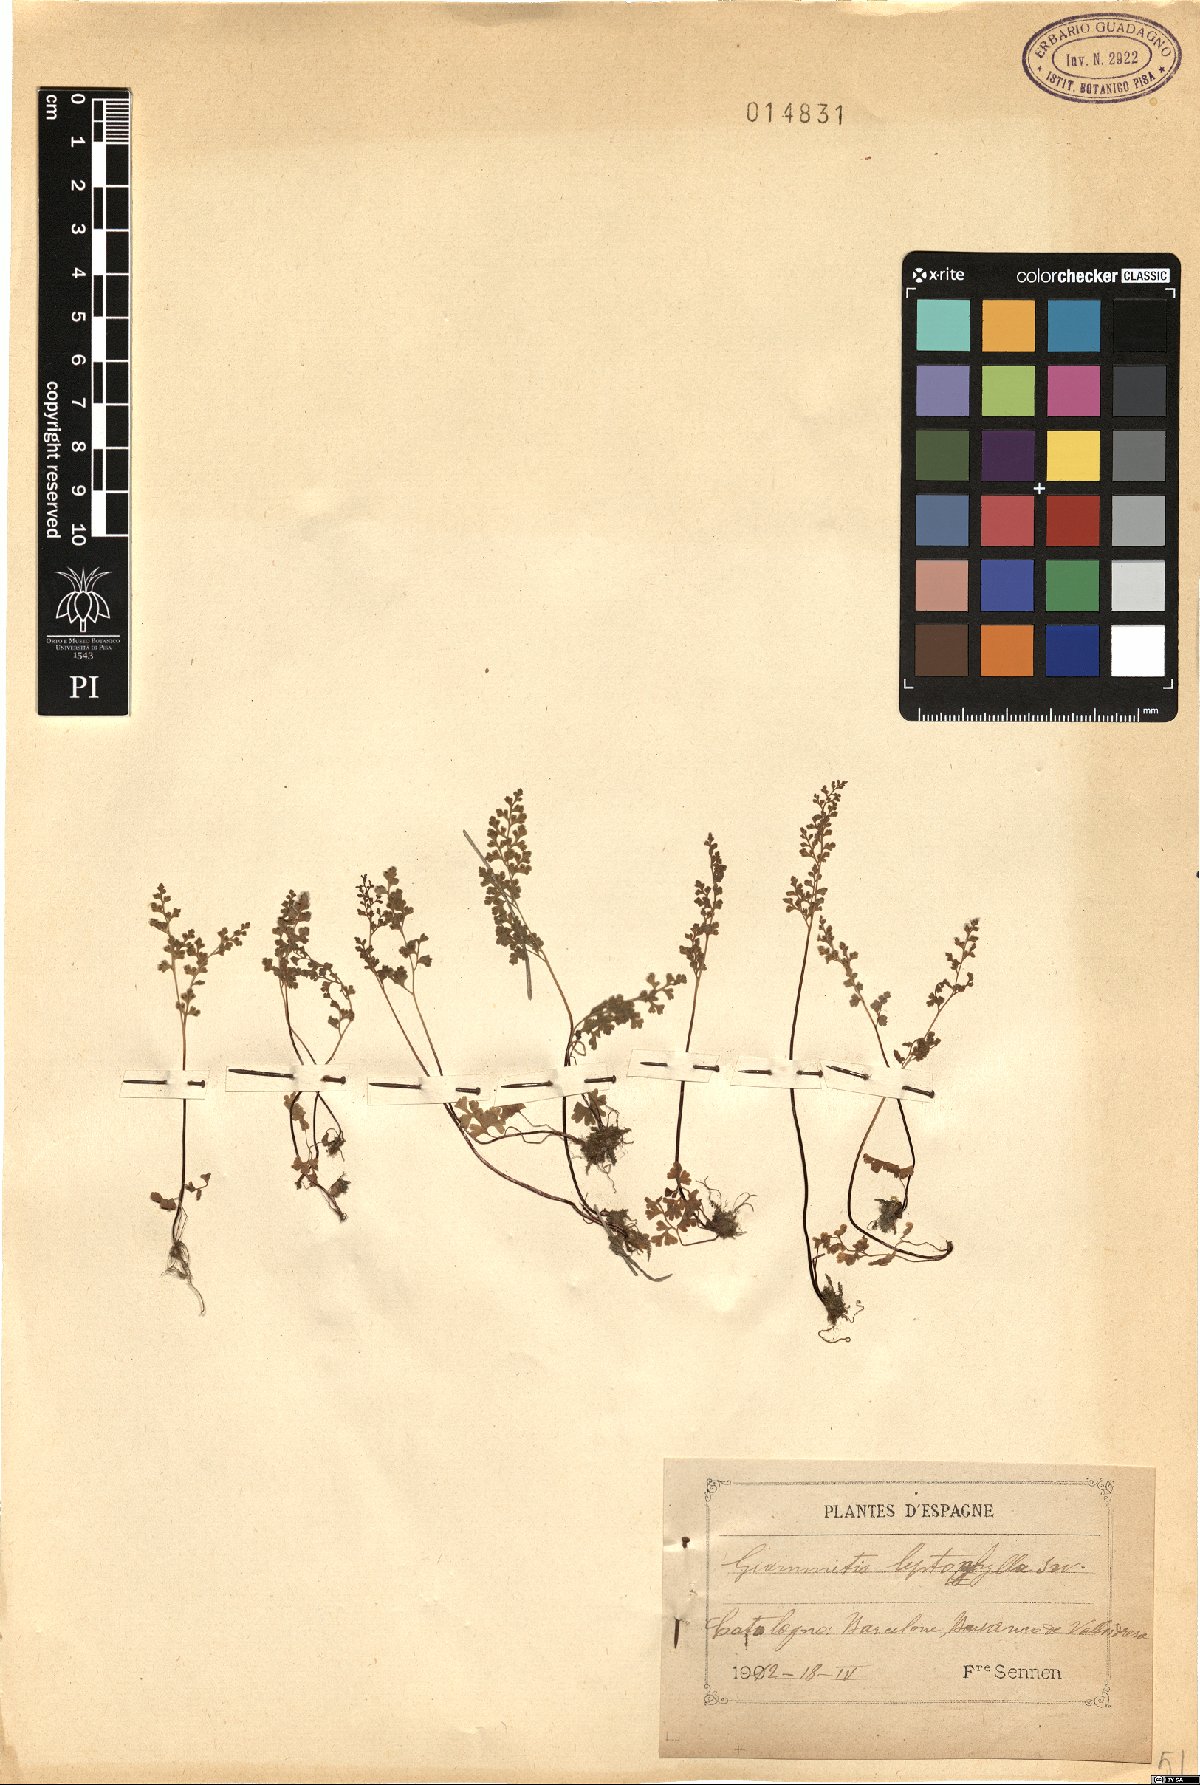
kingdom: Plantae
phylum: Tracheophyta
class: Polypodiopsida
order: Polypodiales
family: Pteridaceae
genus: Anogramma
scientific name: Anogramma leptophylla
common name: Jersey fern
